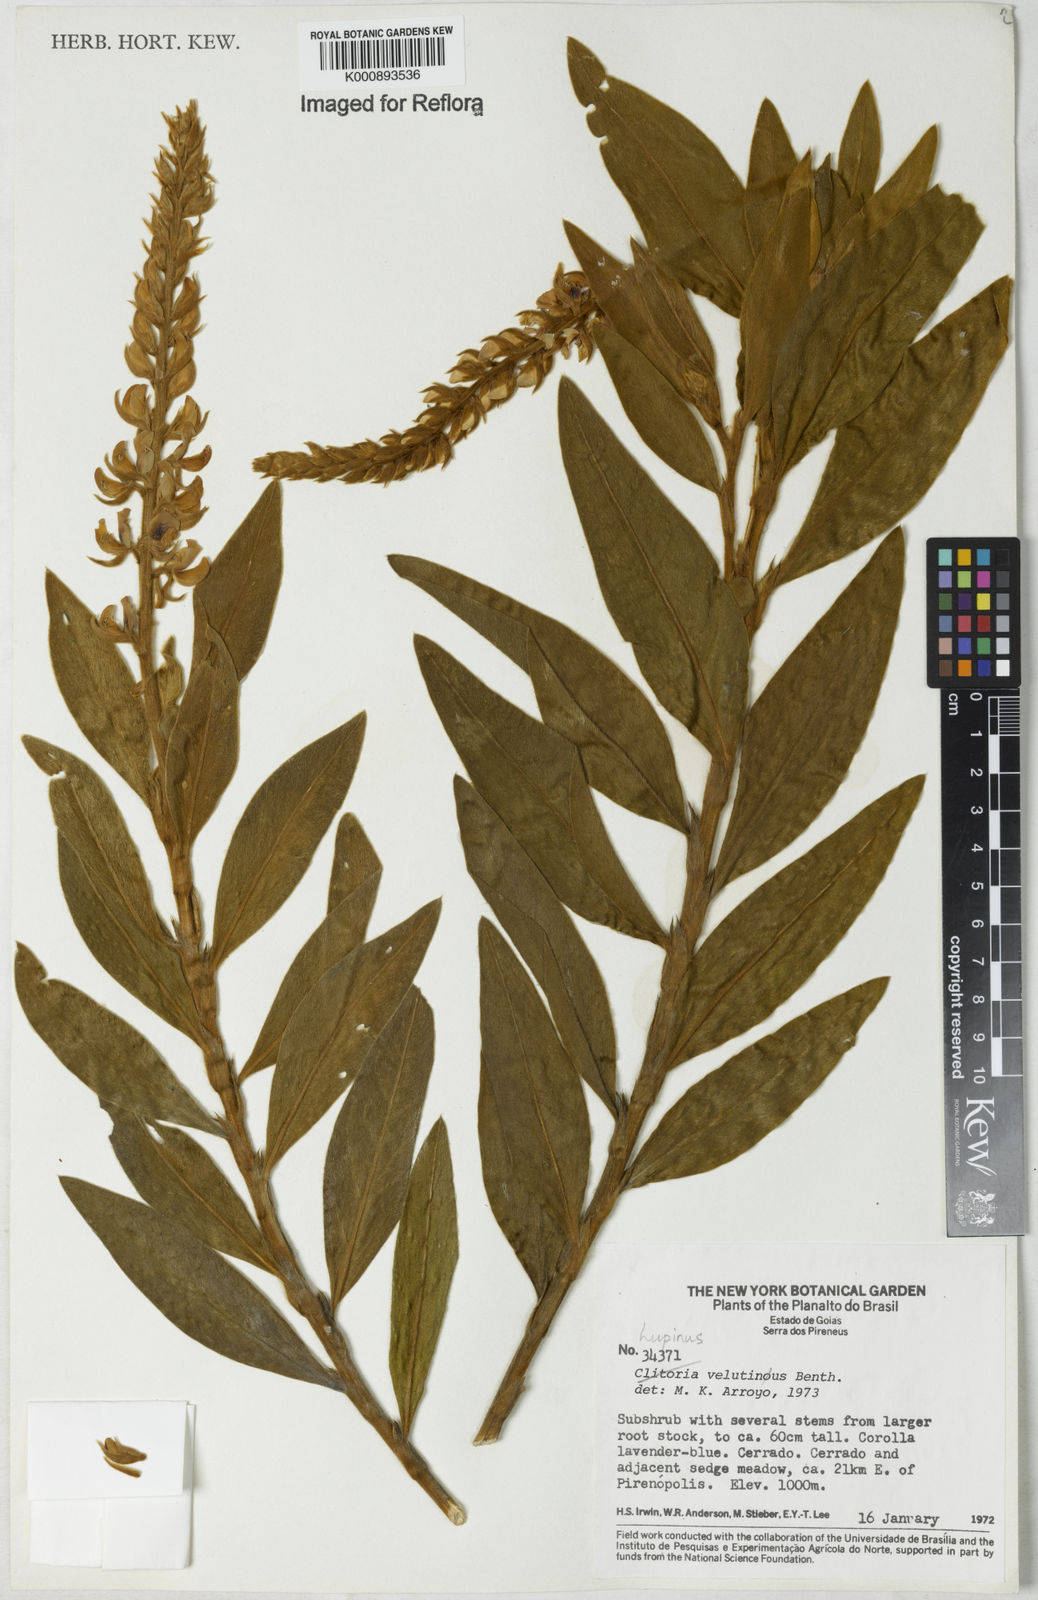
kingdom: Plantae
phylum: Tracheophyta
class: Magnoliopsida
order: Fabales
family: Fabaceae
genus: Lupinus
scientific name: Lupinus velutinus
